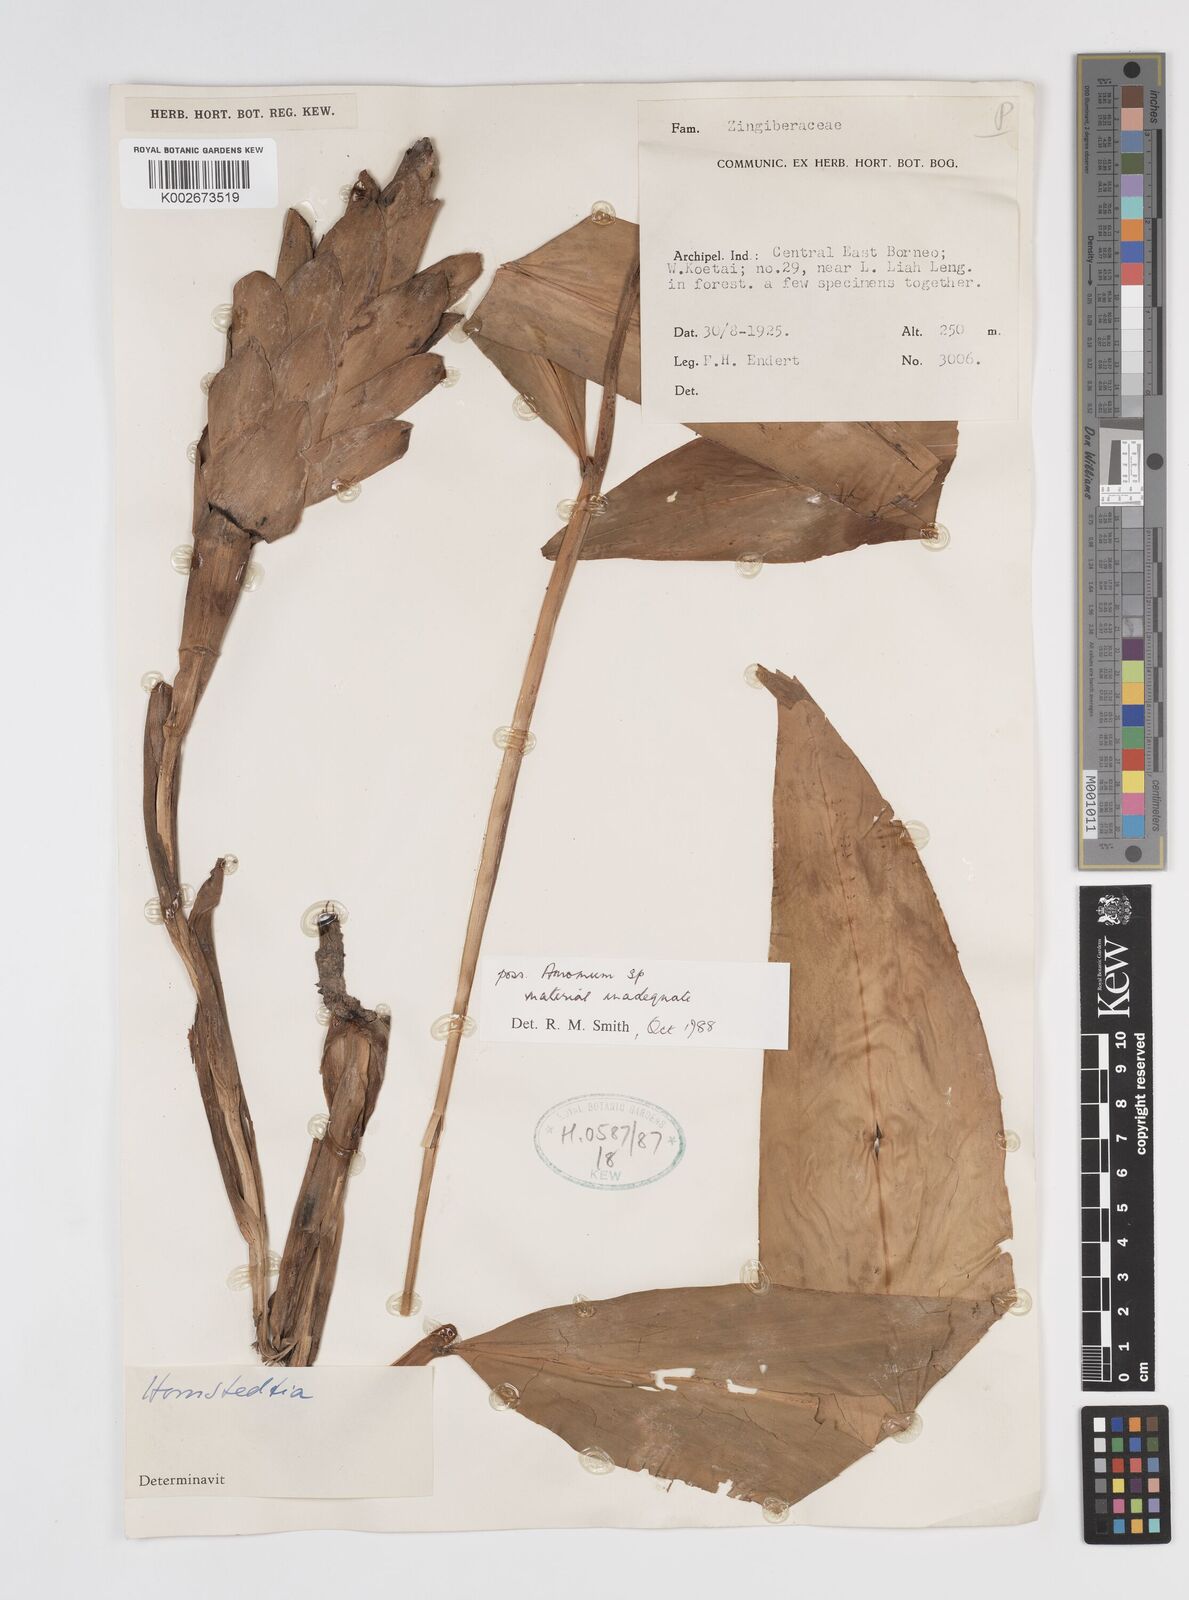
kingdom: Plantae
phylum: Tracheophyta
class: Liliopsida
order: Zingiberales
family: Zingiberaceae
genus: Amomum
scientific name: Amomum
